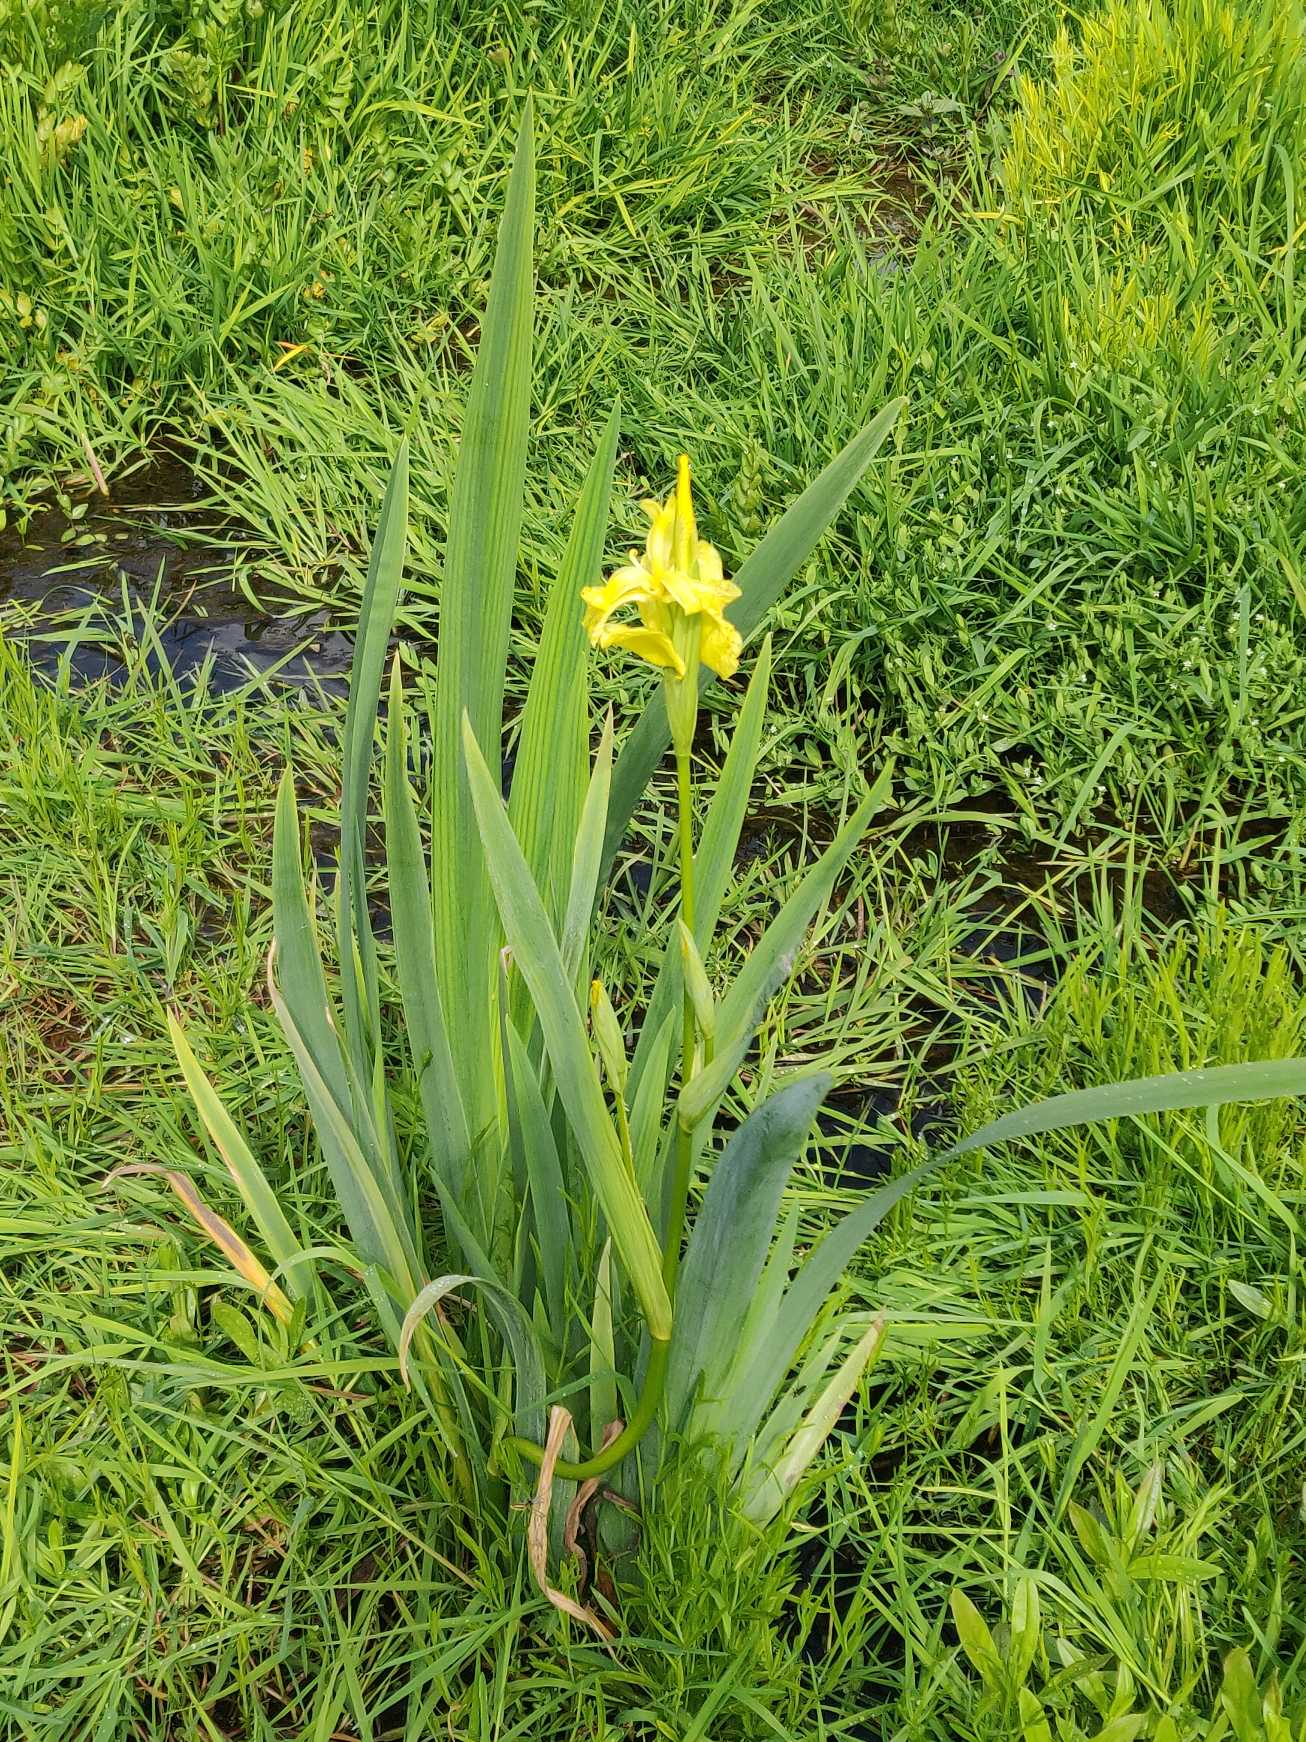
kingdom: Plantae
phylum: Tracheophyta
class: Liliopsida
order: Asparagales
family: Iridaceae
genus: Iris
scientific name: Iris pseudacorus
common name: Gul iris
